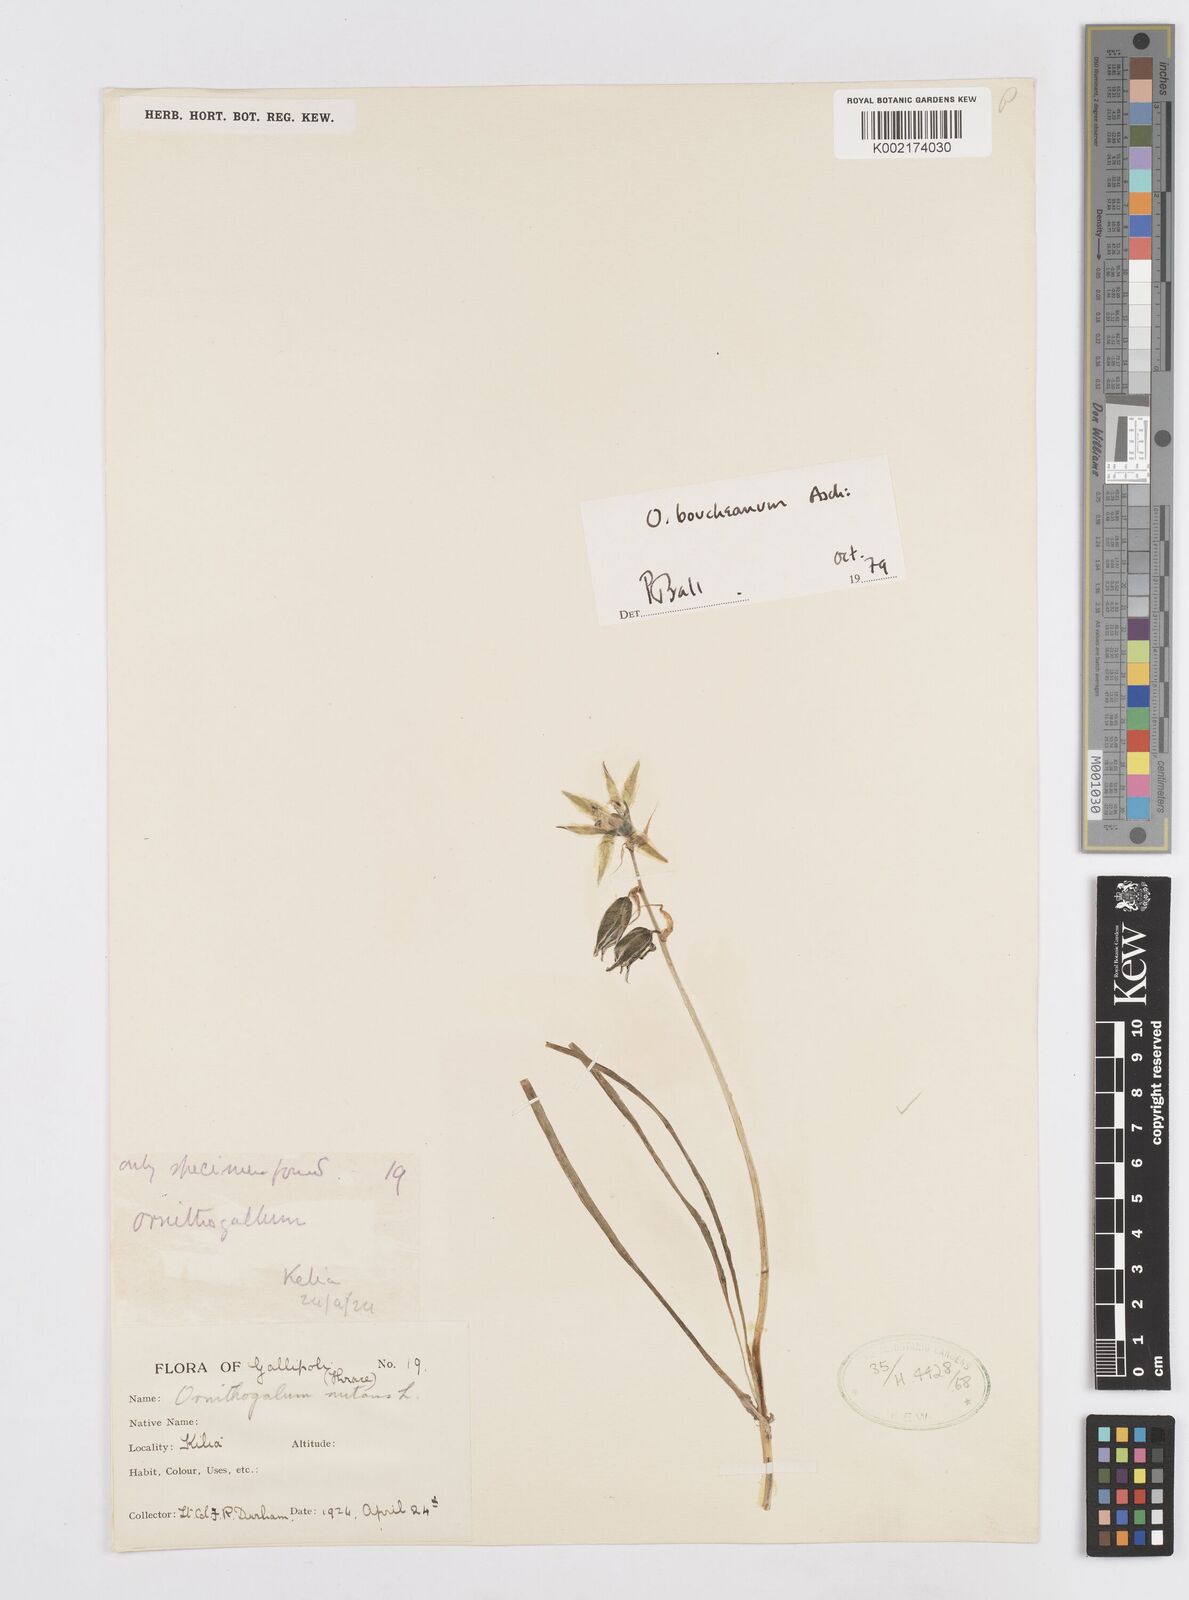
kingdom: Plantae
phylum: Tracheophyta
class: Liliopsida
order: Asparagales
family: Asparagaceae
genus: Ornithogalum
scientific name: Ornithogalum nutans
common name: Drooping star-of-bethlehem
